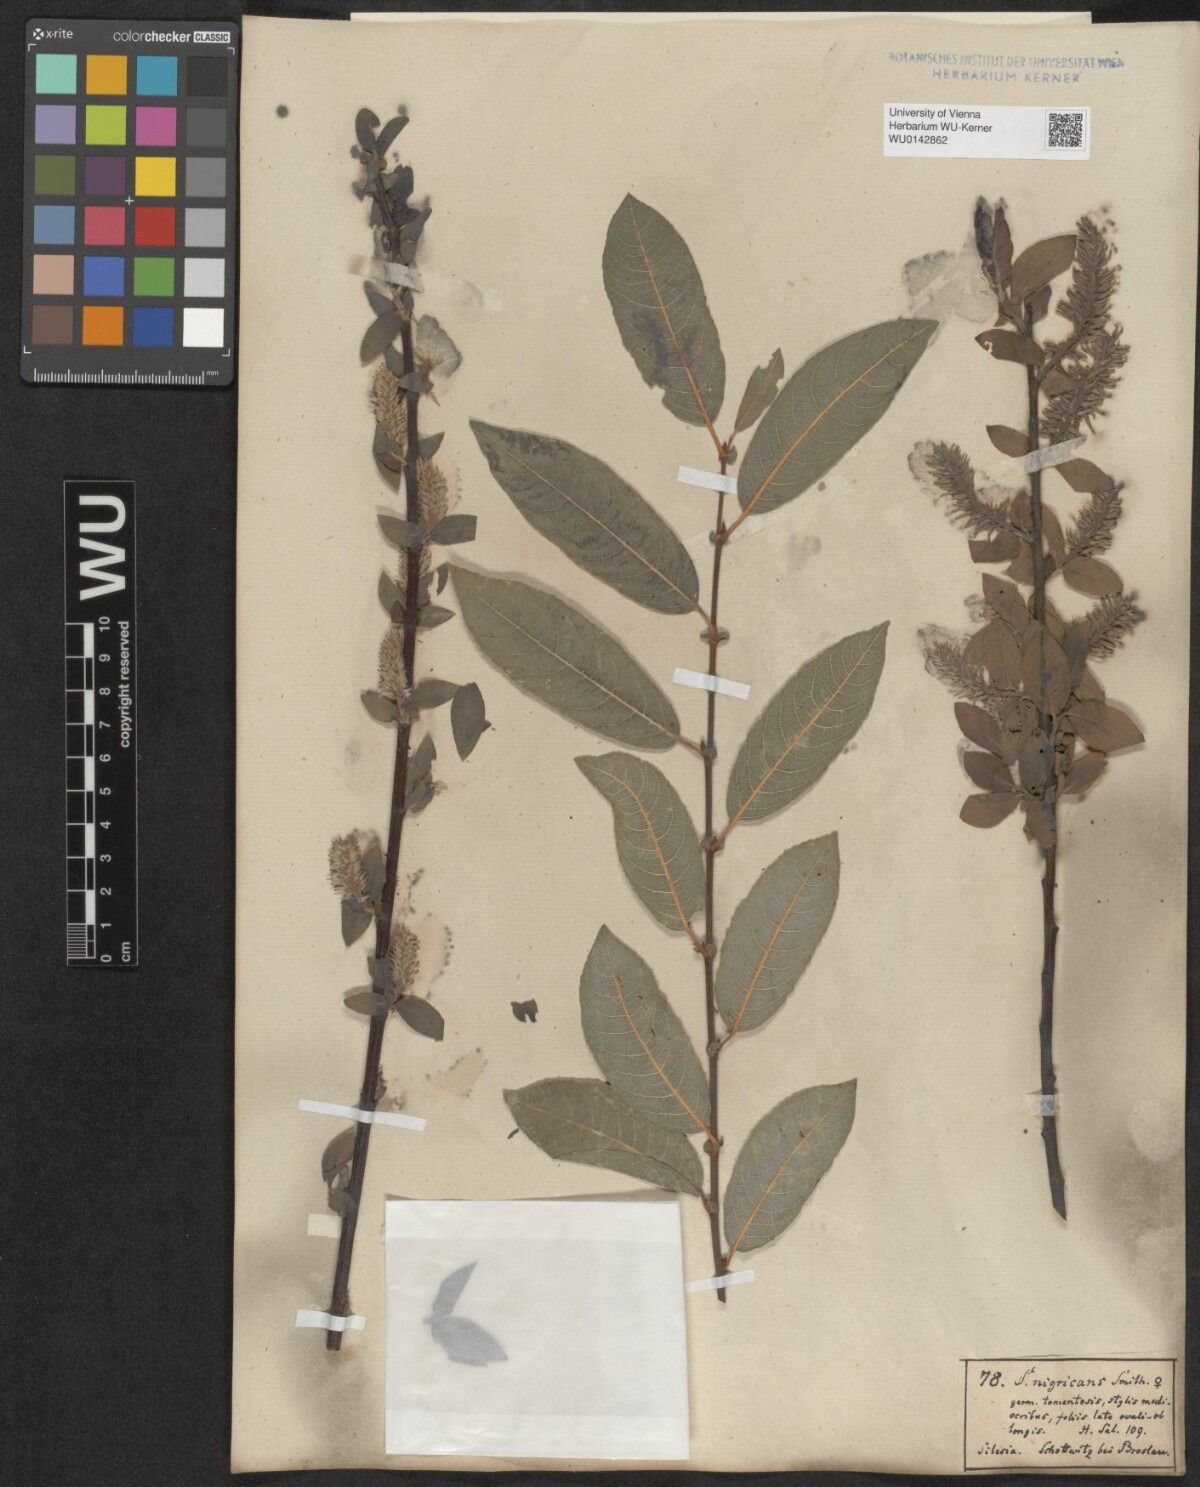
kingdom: Plantae
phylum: Tracheophyta
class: Magnoliopsida
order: Malpighiales
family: Salicaceae
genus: Salix
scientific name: Salix myrsinifolia
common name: Dark-leaved willow
